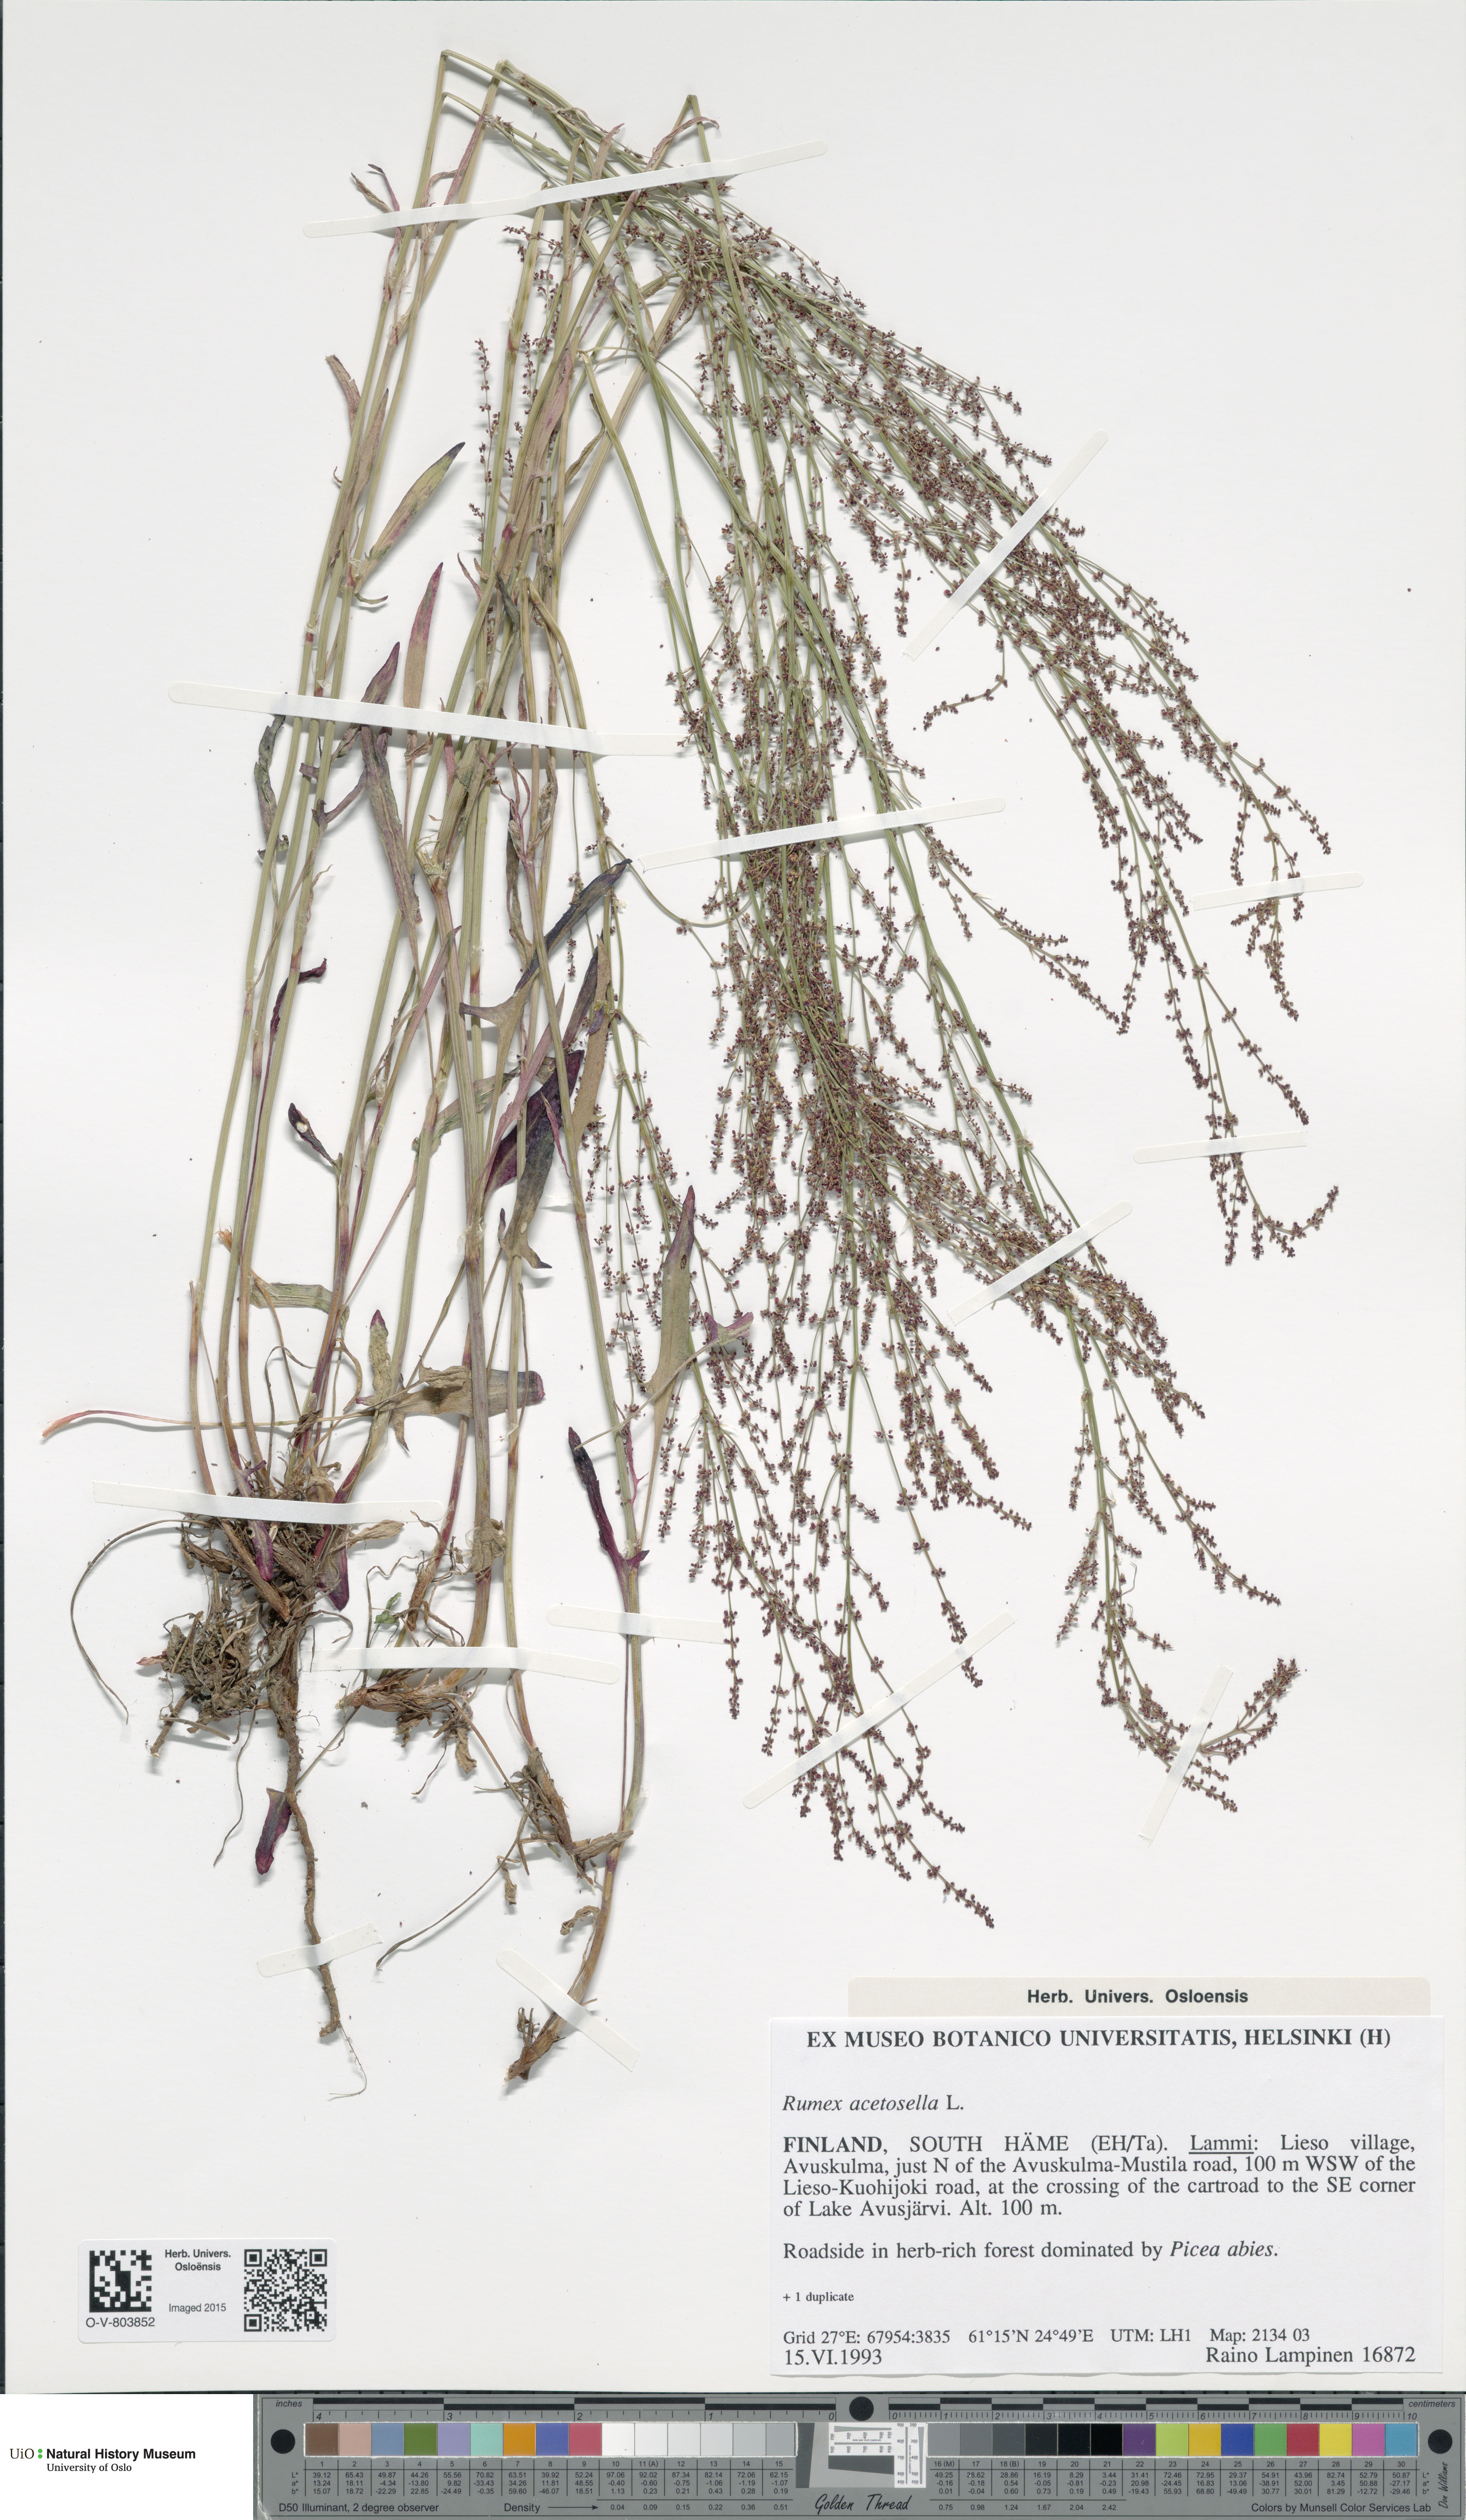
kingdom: Plantae
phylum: Tracheophyta
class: Magnoliopsida
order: Caryophyllales
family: Polygonaceae
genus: Rumex
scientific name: Rumex acetosella
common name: Common sheep sorrel
